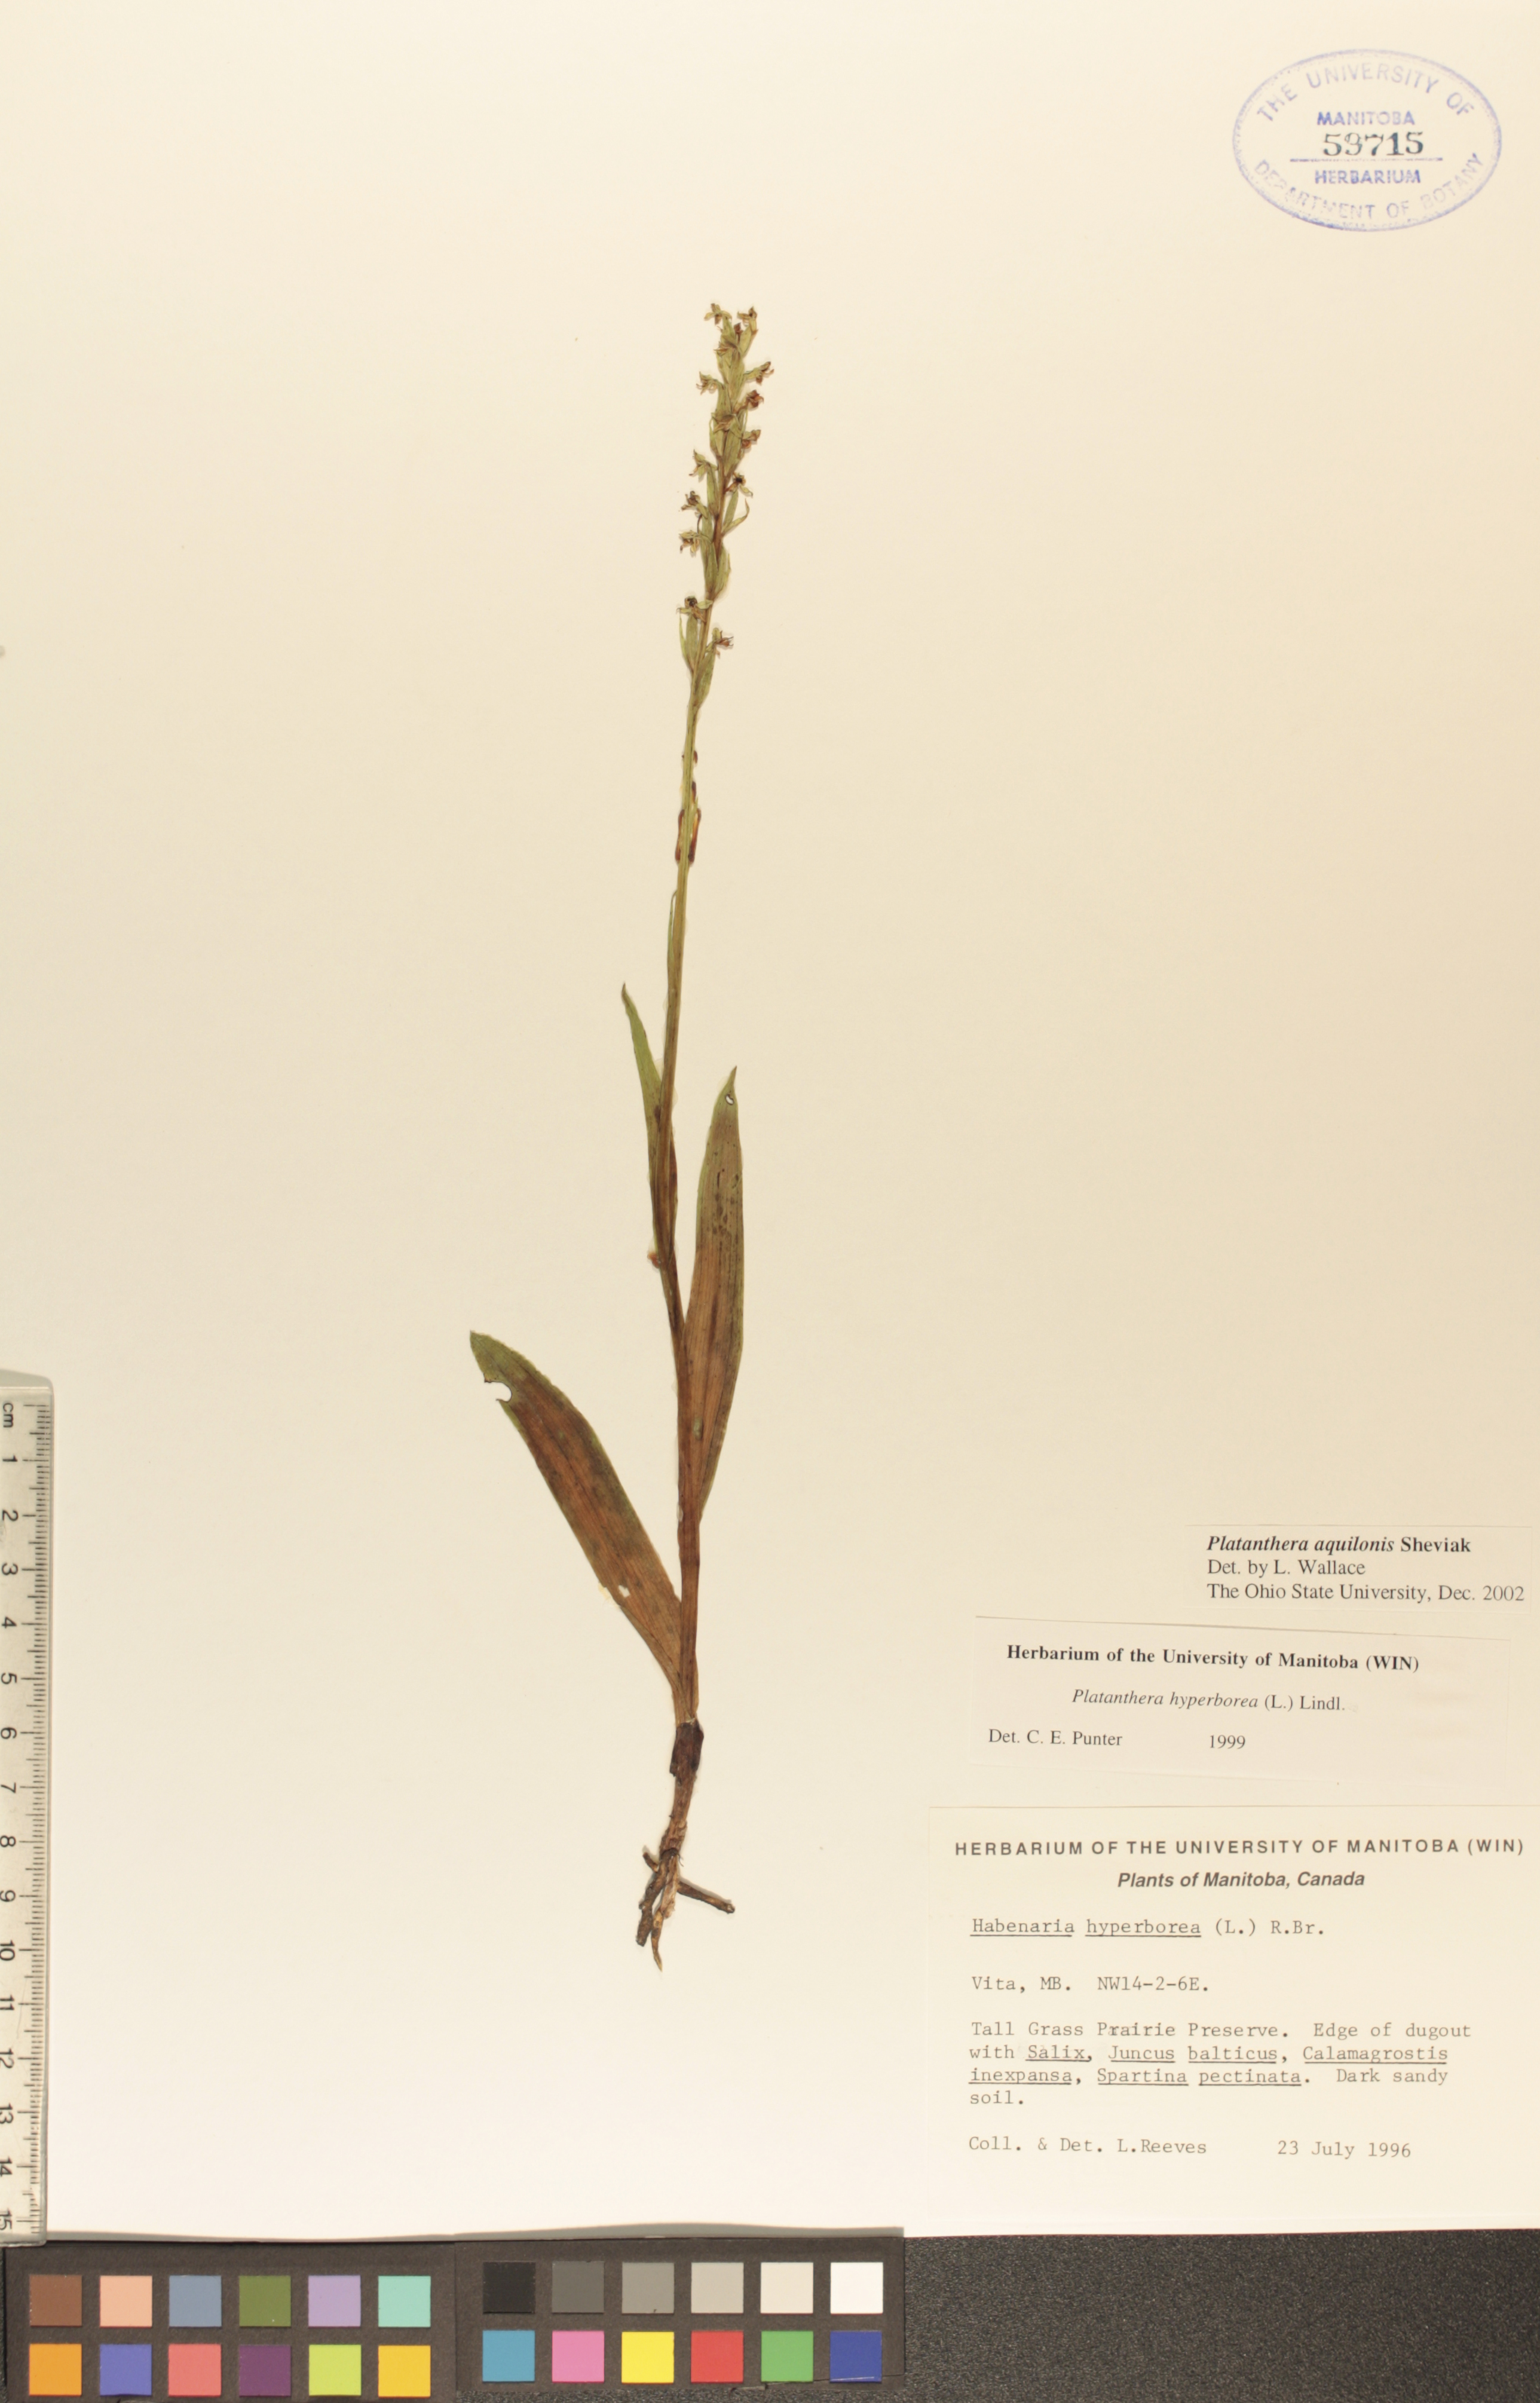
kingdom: Plantae
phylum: Tracheophyta
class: Liliopsida
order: Asparagales
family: Orchidaceae
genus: Platanthera
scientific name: Platanthera aquilonis
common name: Northern green orchid
